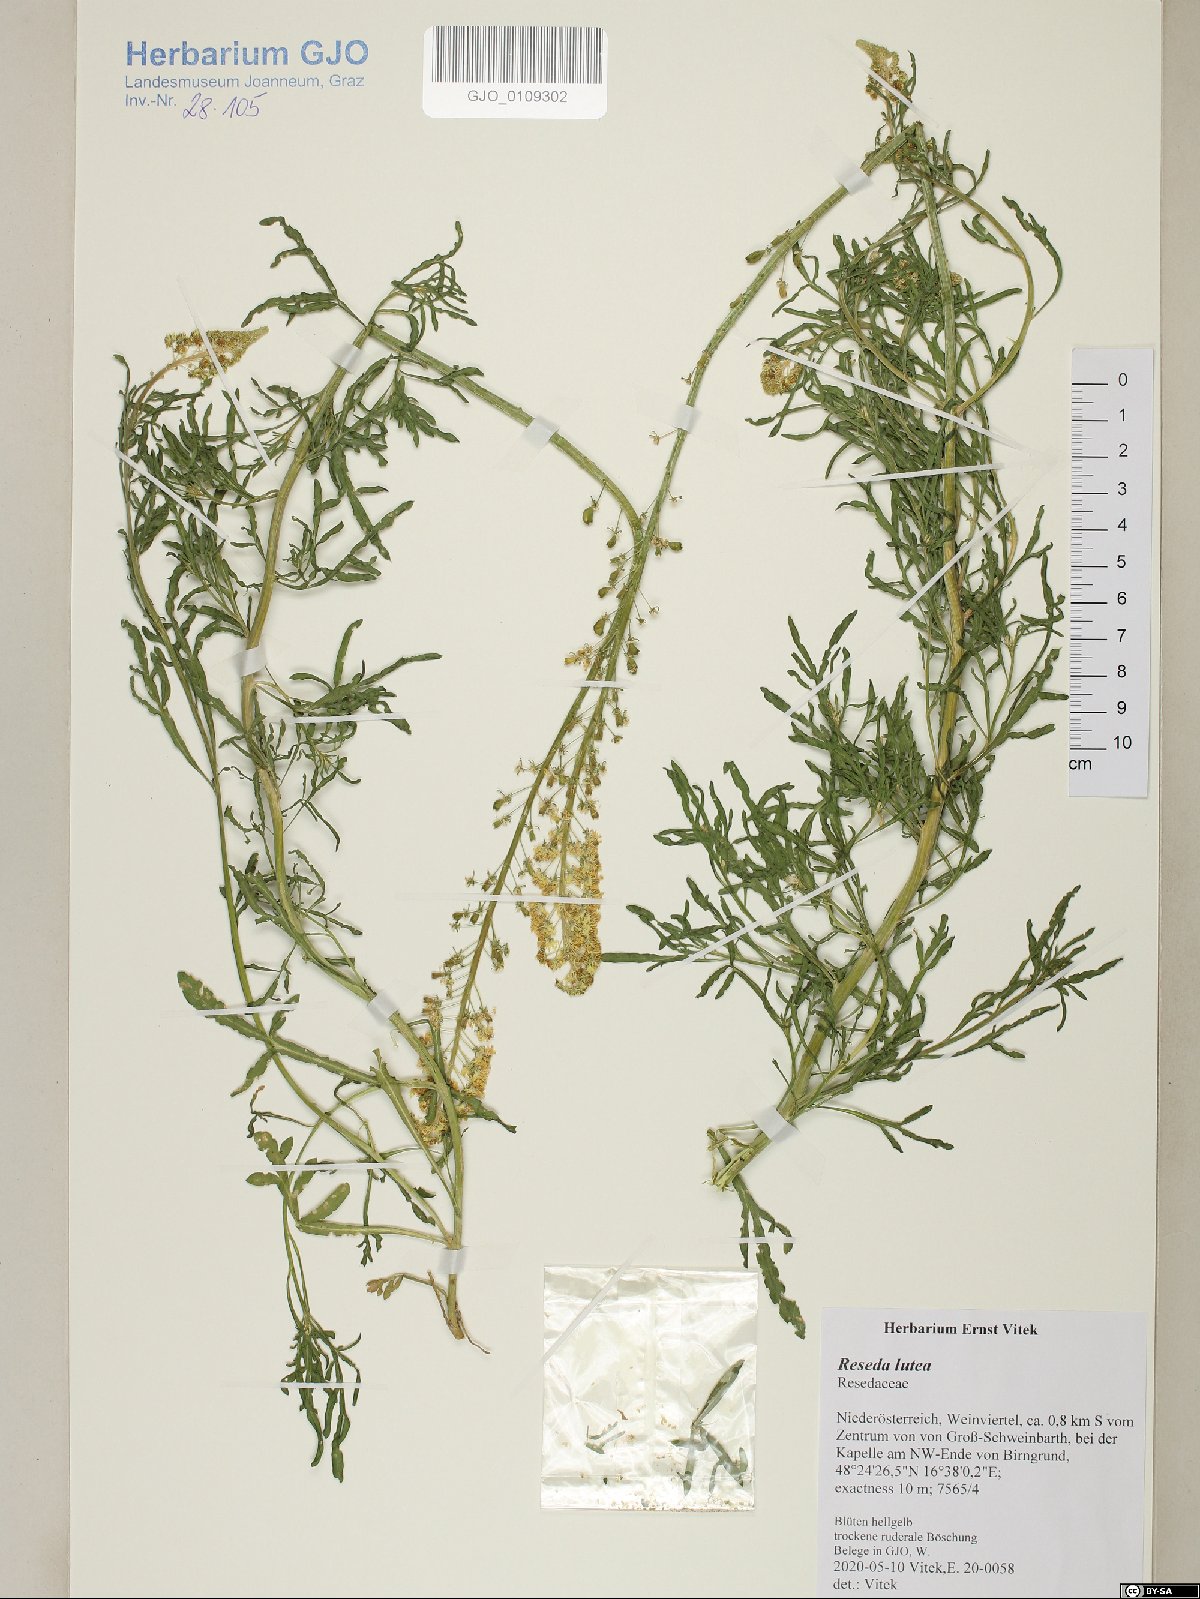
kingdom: Plantae
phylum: Tracheophyta
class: Magnoliopsida
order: Brassicales
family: Resedaceae
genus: Reseda
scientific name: Reseda lutea
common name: Wild mignonette
